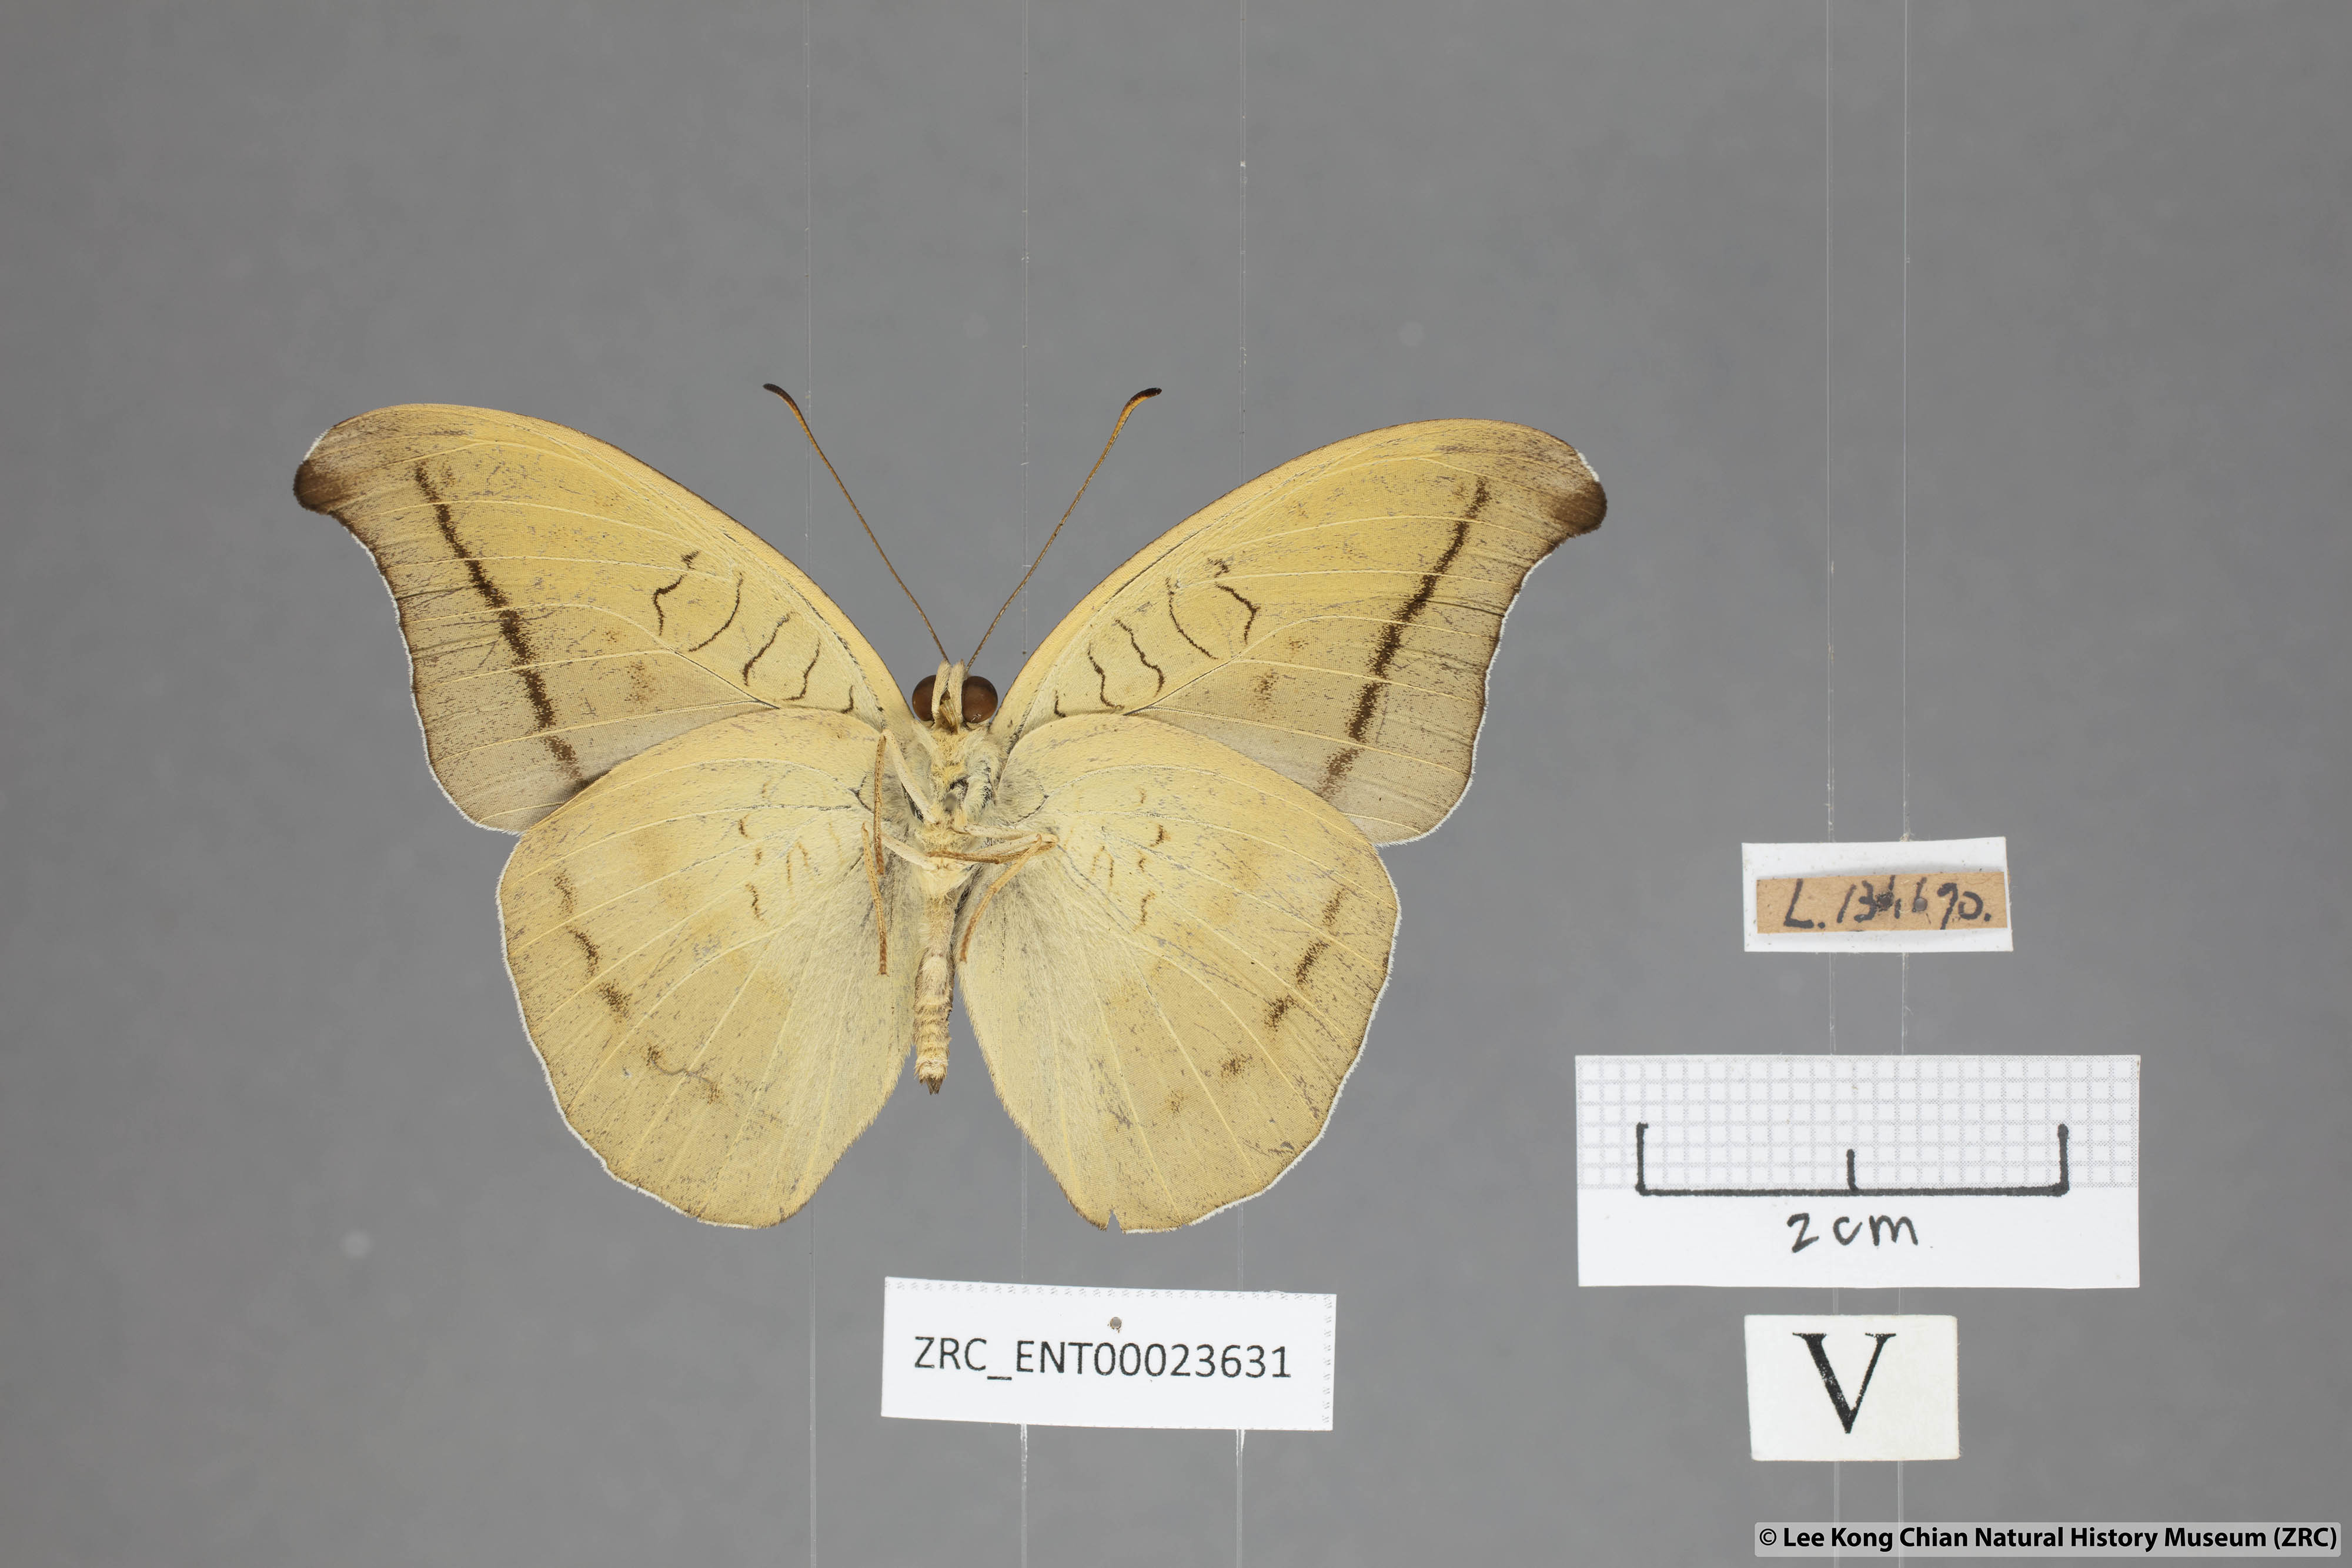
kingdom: Animalia
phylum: Arthropoda
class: Insecta
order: Lepidoptera
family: Nymphalidae
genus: Tanaecia
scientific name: Tanaecia cocytus
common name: Lavender count
